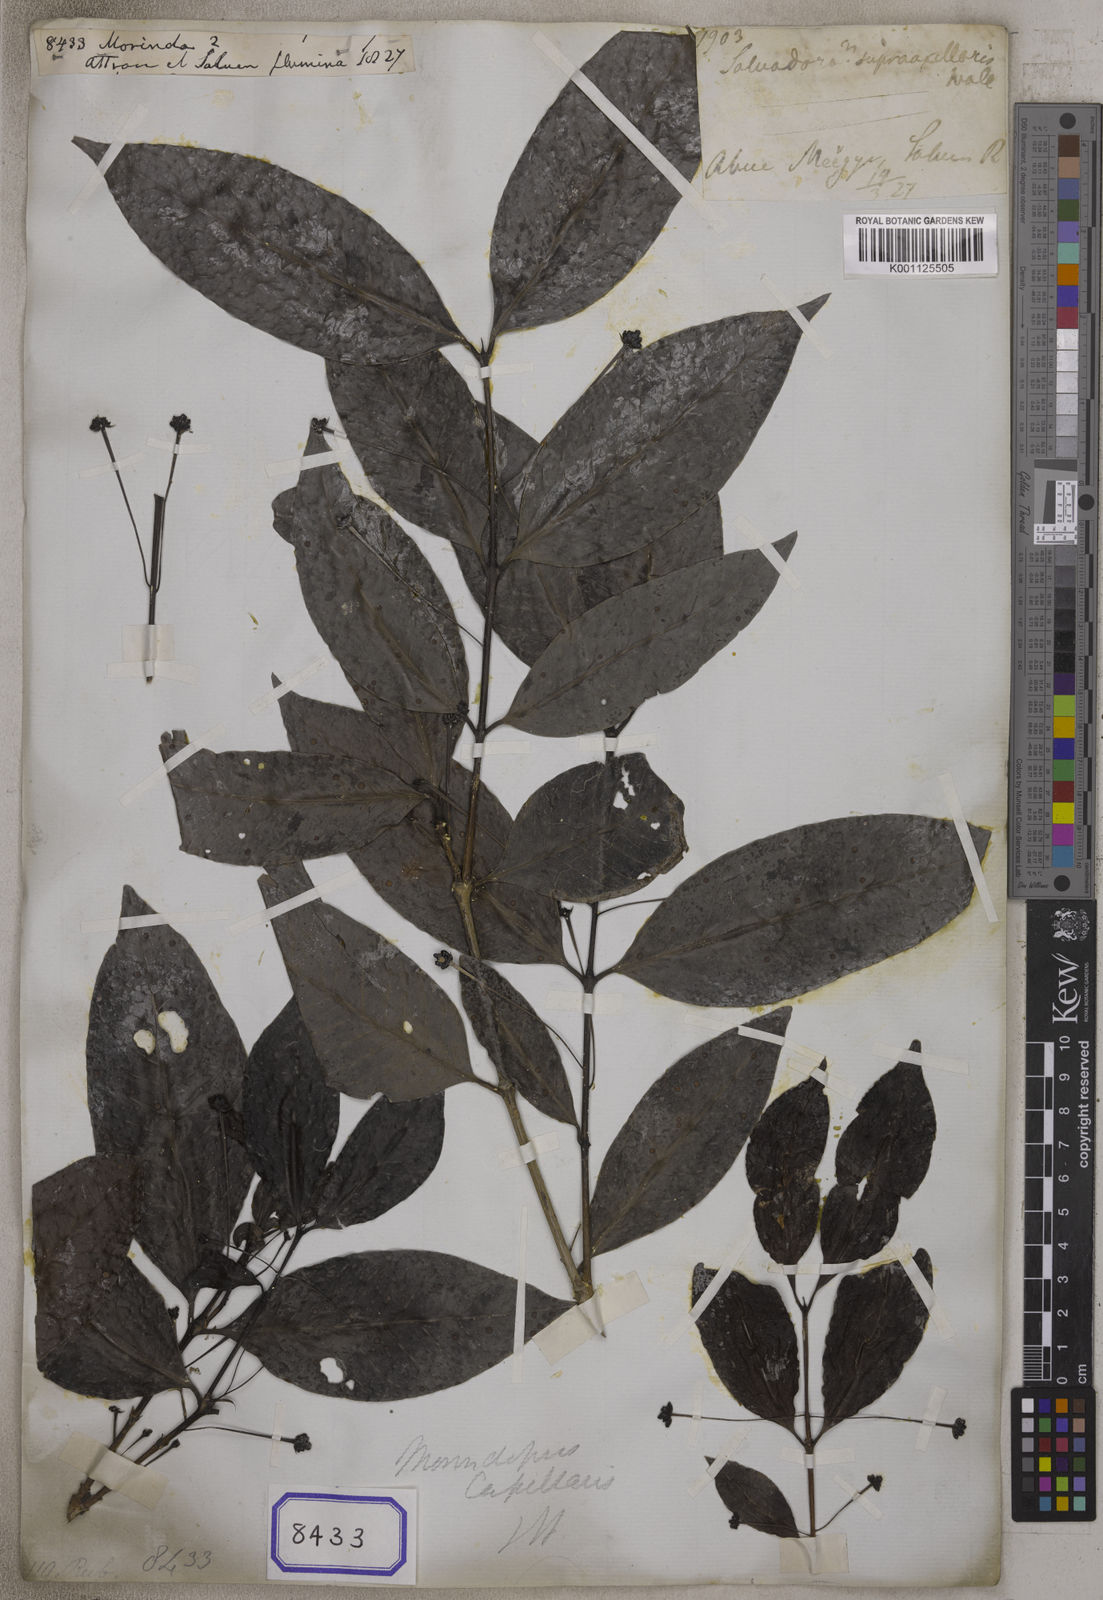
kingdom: Plantae
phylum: Tracheophyta
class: Magnoliopsida
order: Gentianales
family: Rubiaceae
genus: Morindopsis
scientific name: Morindopsis capillaris
